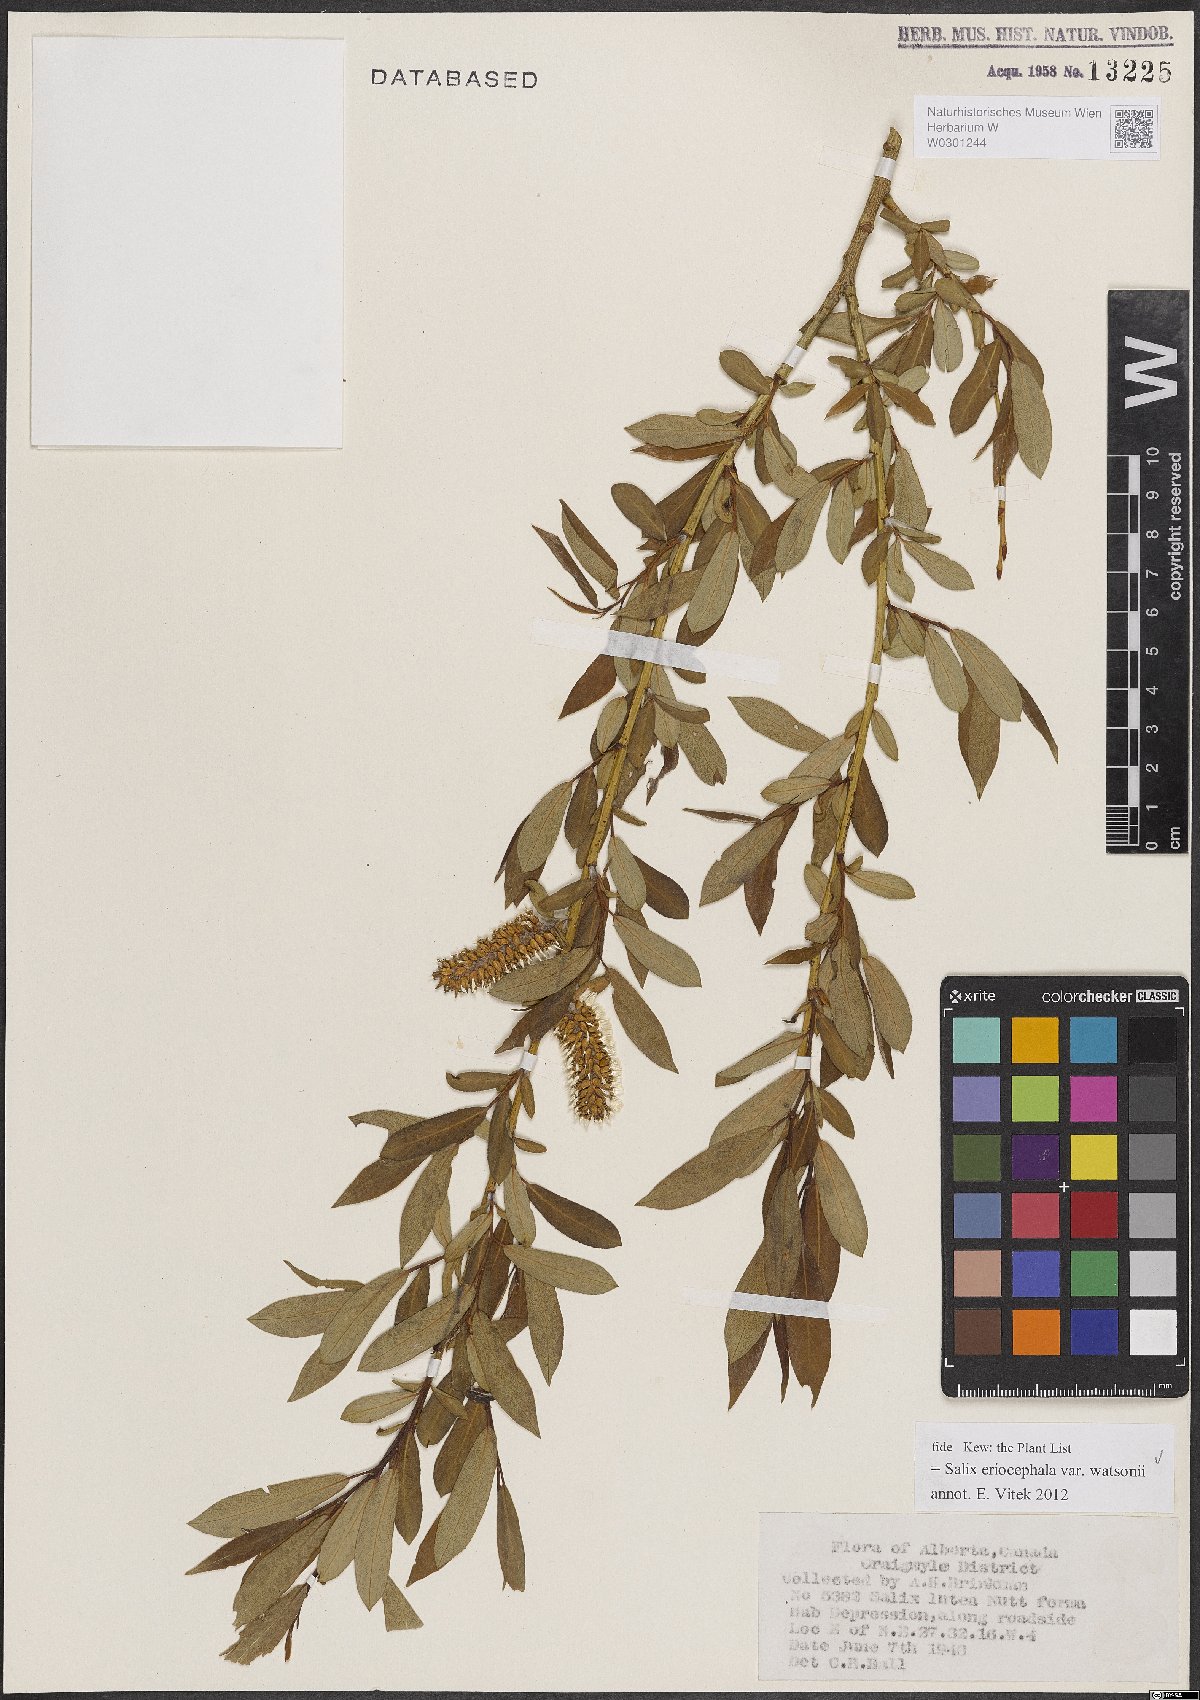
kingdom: Plantae
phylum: Tracheophyta
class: Magnoliopsida
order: Malpighiales
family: Salicaceae
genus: Salix
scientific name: Salix lutea
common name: Yellow willow
